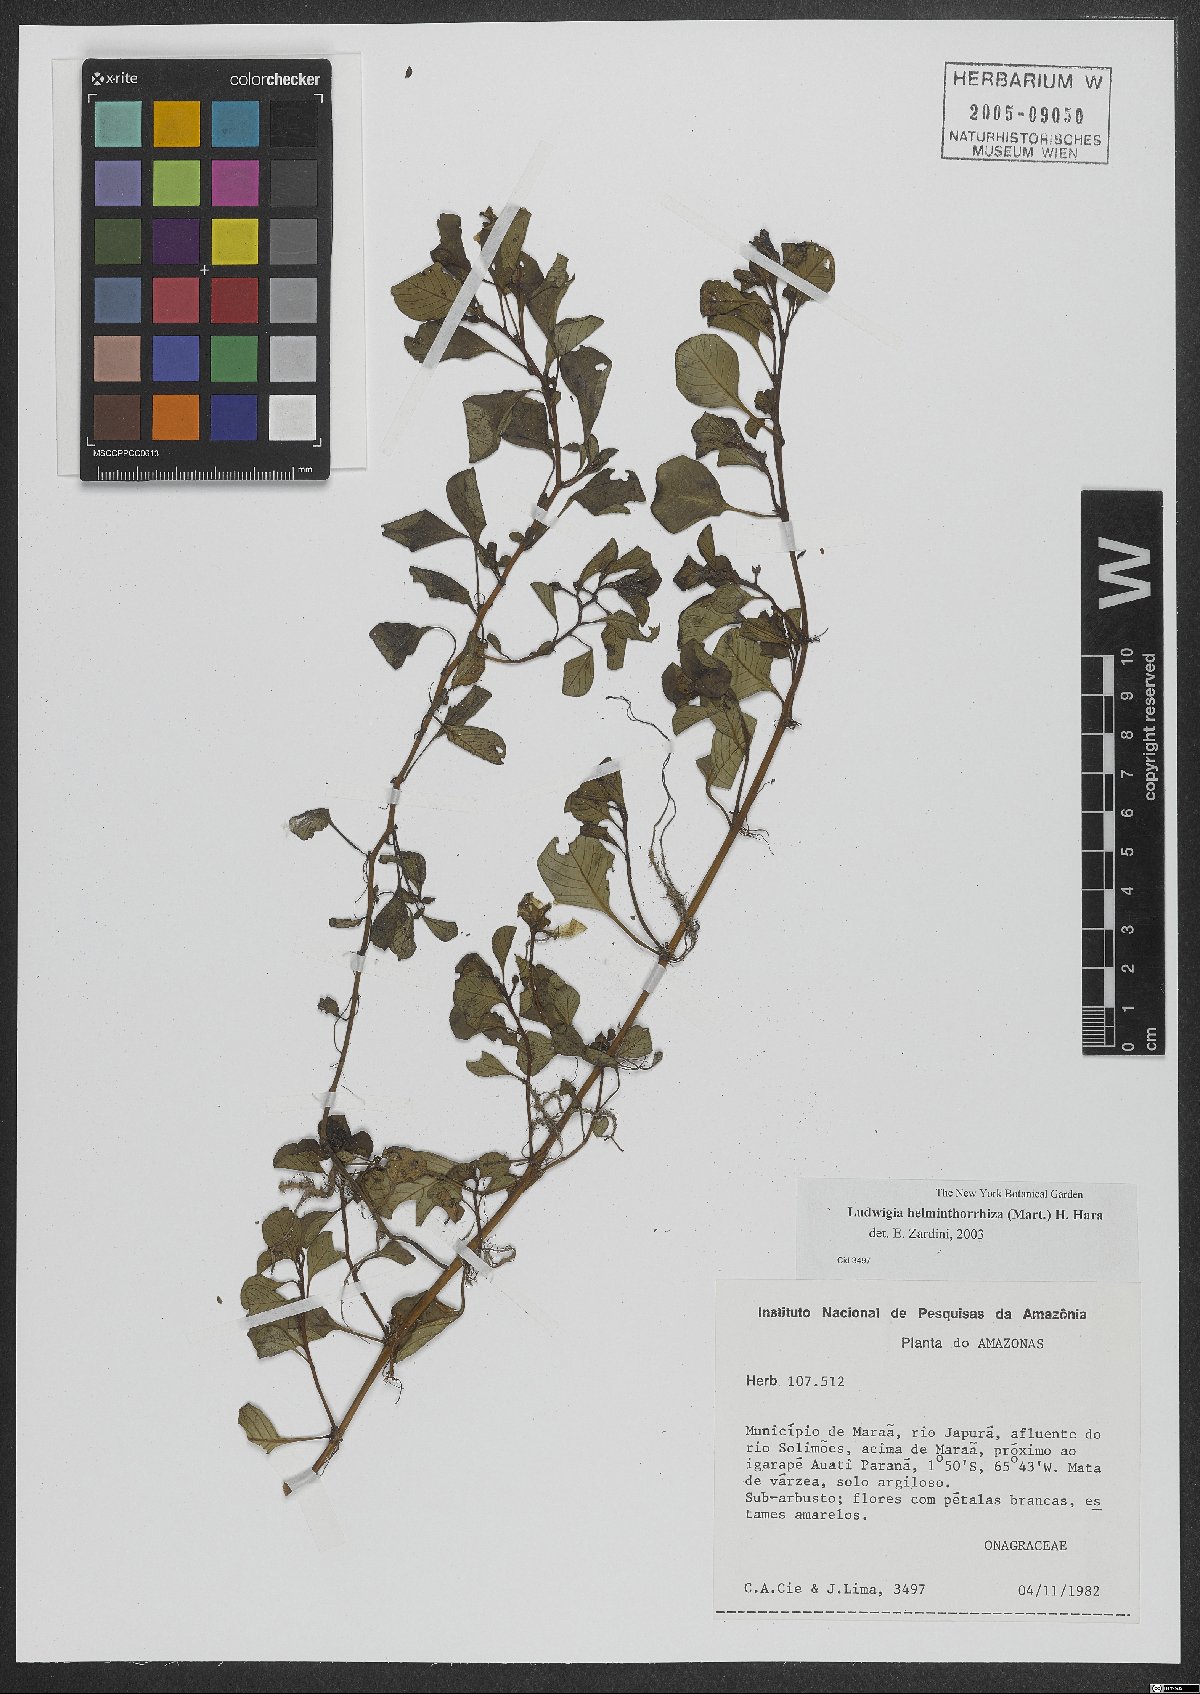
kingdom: Plantae
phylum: Tracheophyta
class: Magnoliopsida
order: Myrtales
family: Onagraceae
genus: Ludwigia
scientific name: Ludwigia helminthorrhiza
